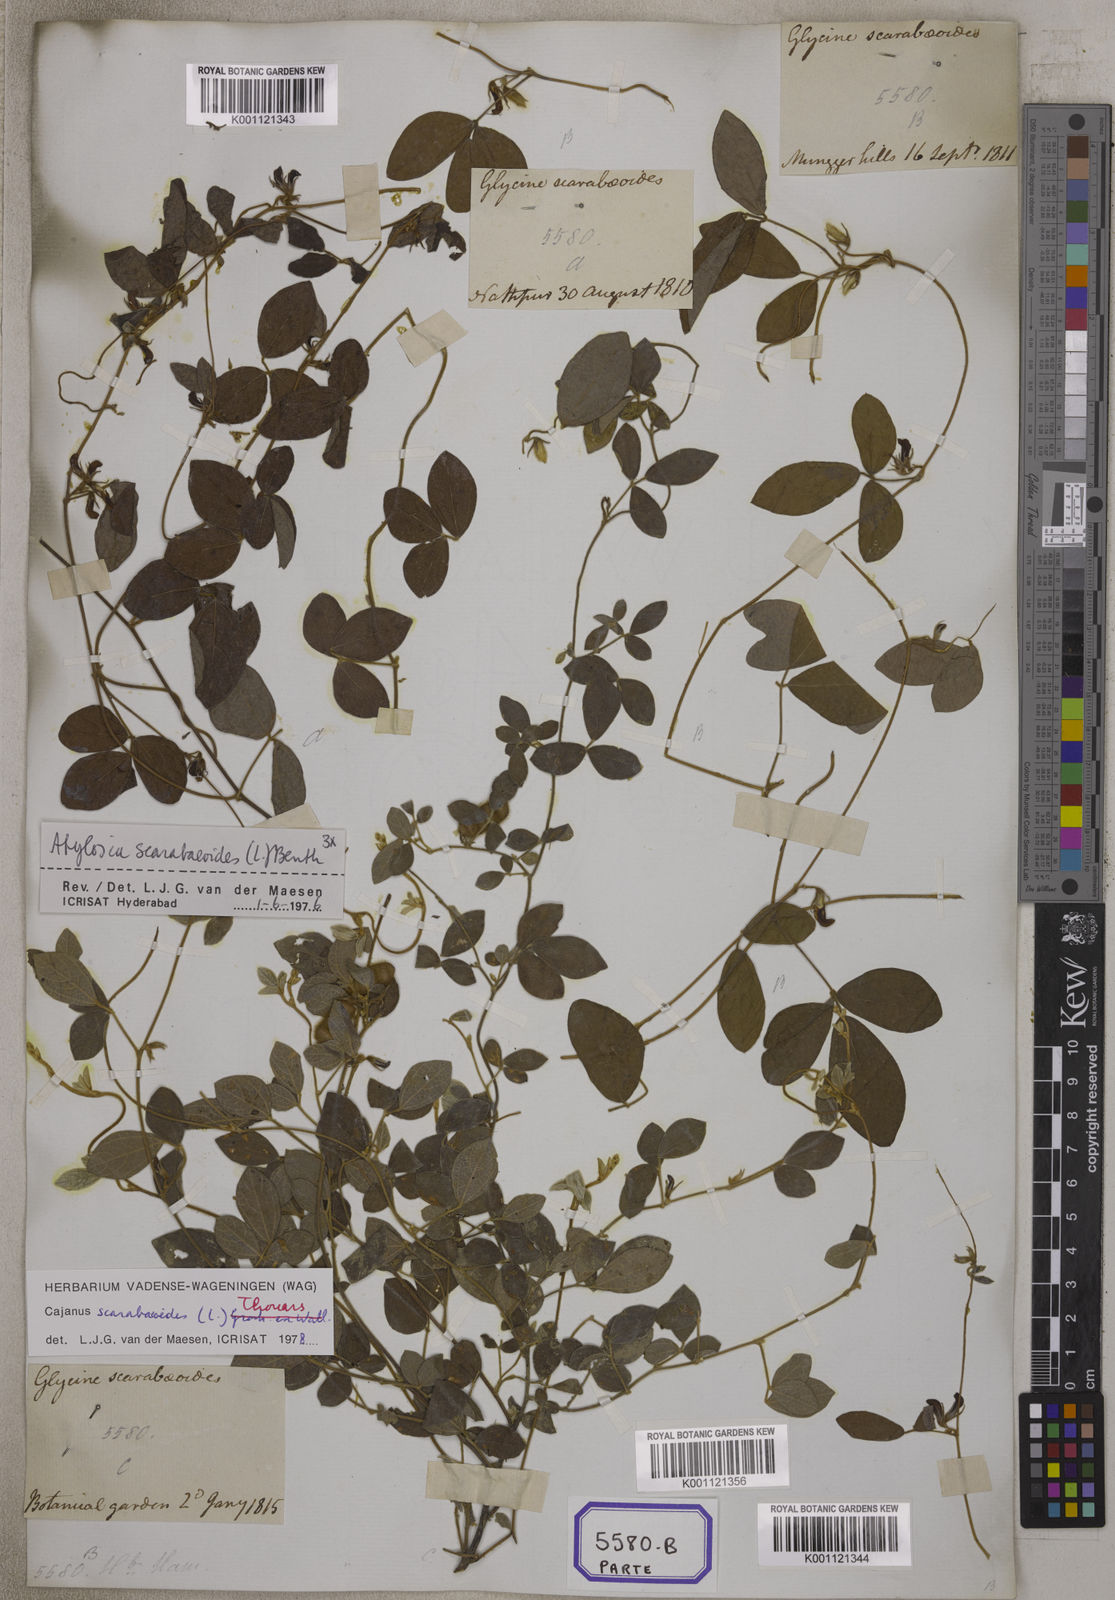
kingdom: Plantae
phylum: Tracheophyta
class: Magnoliopsida
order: Fabales
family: Fabaceae
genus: Cajanus
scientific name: Cajanus scarabaeoides
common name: Showy pigeonpea
